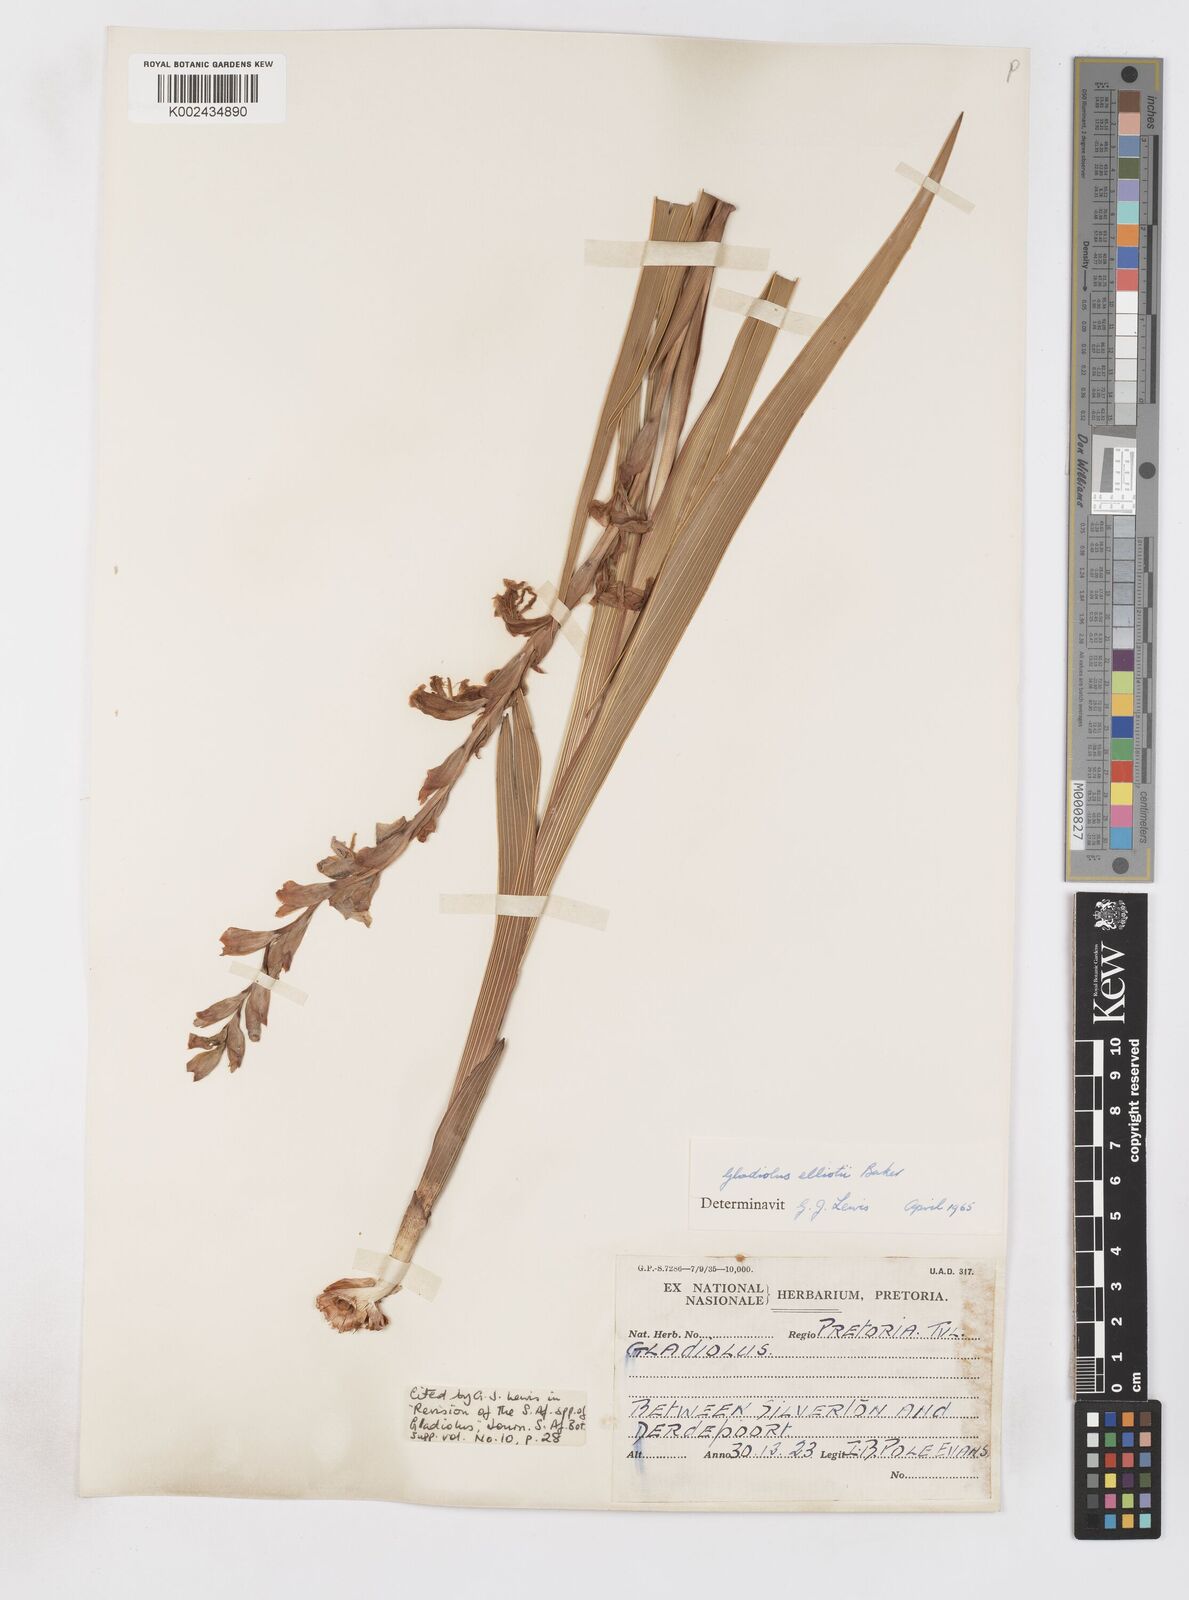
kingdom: Plantae
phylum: Tracheophyta
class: Liliopsida
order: Asparagales
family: Iridaceae
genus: Gladiolus
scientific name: Gladiolus elliotii
